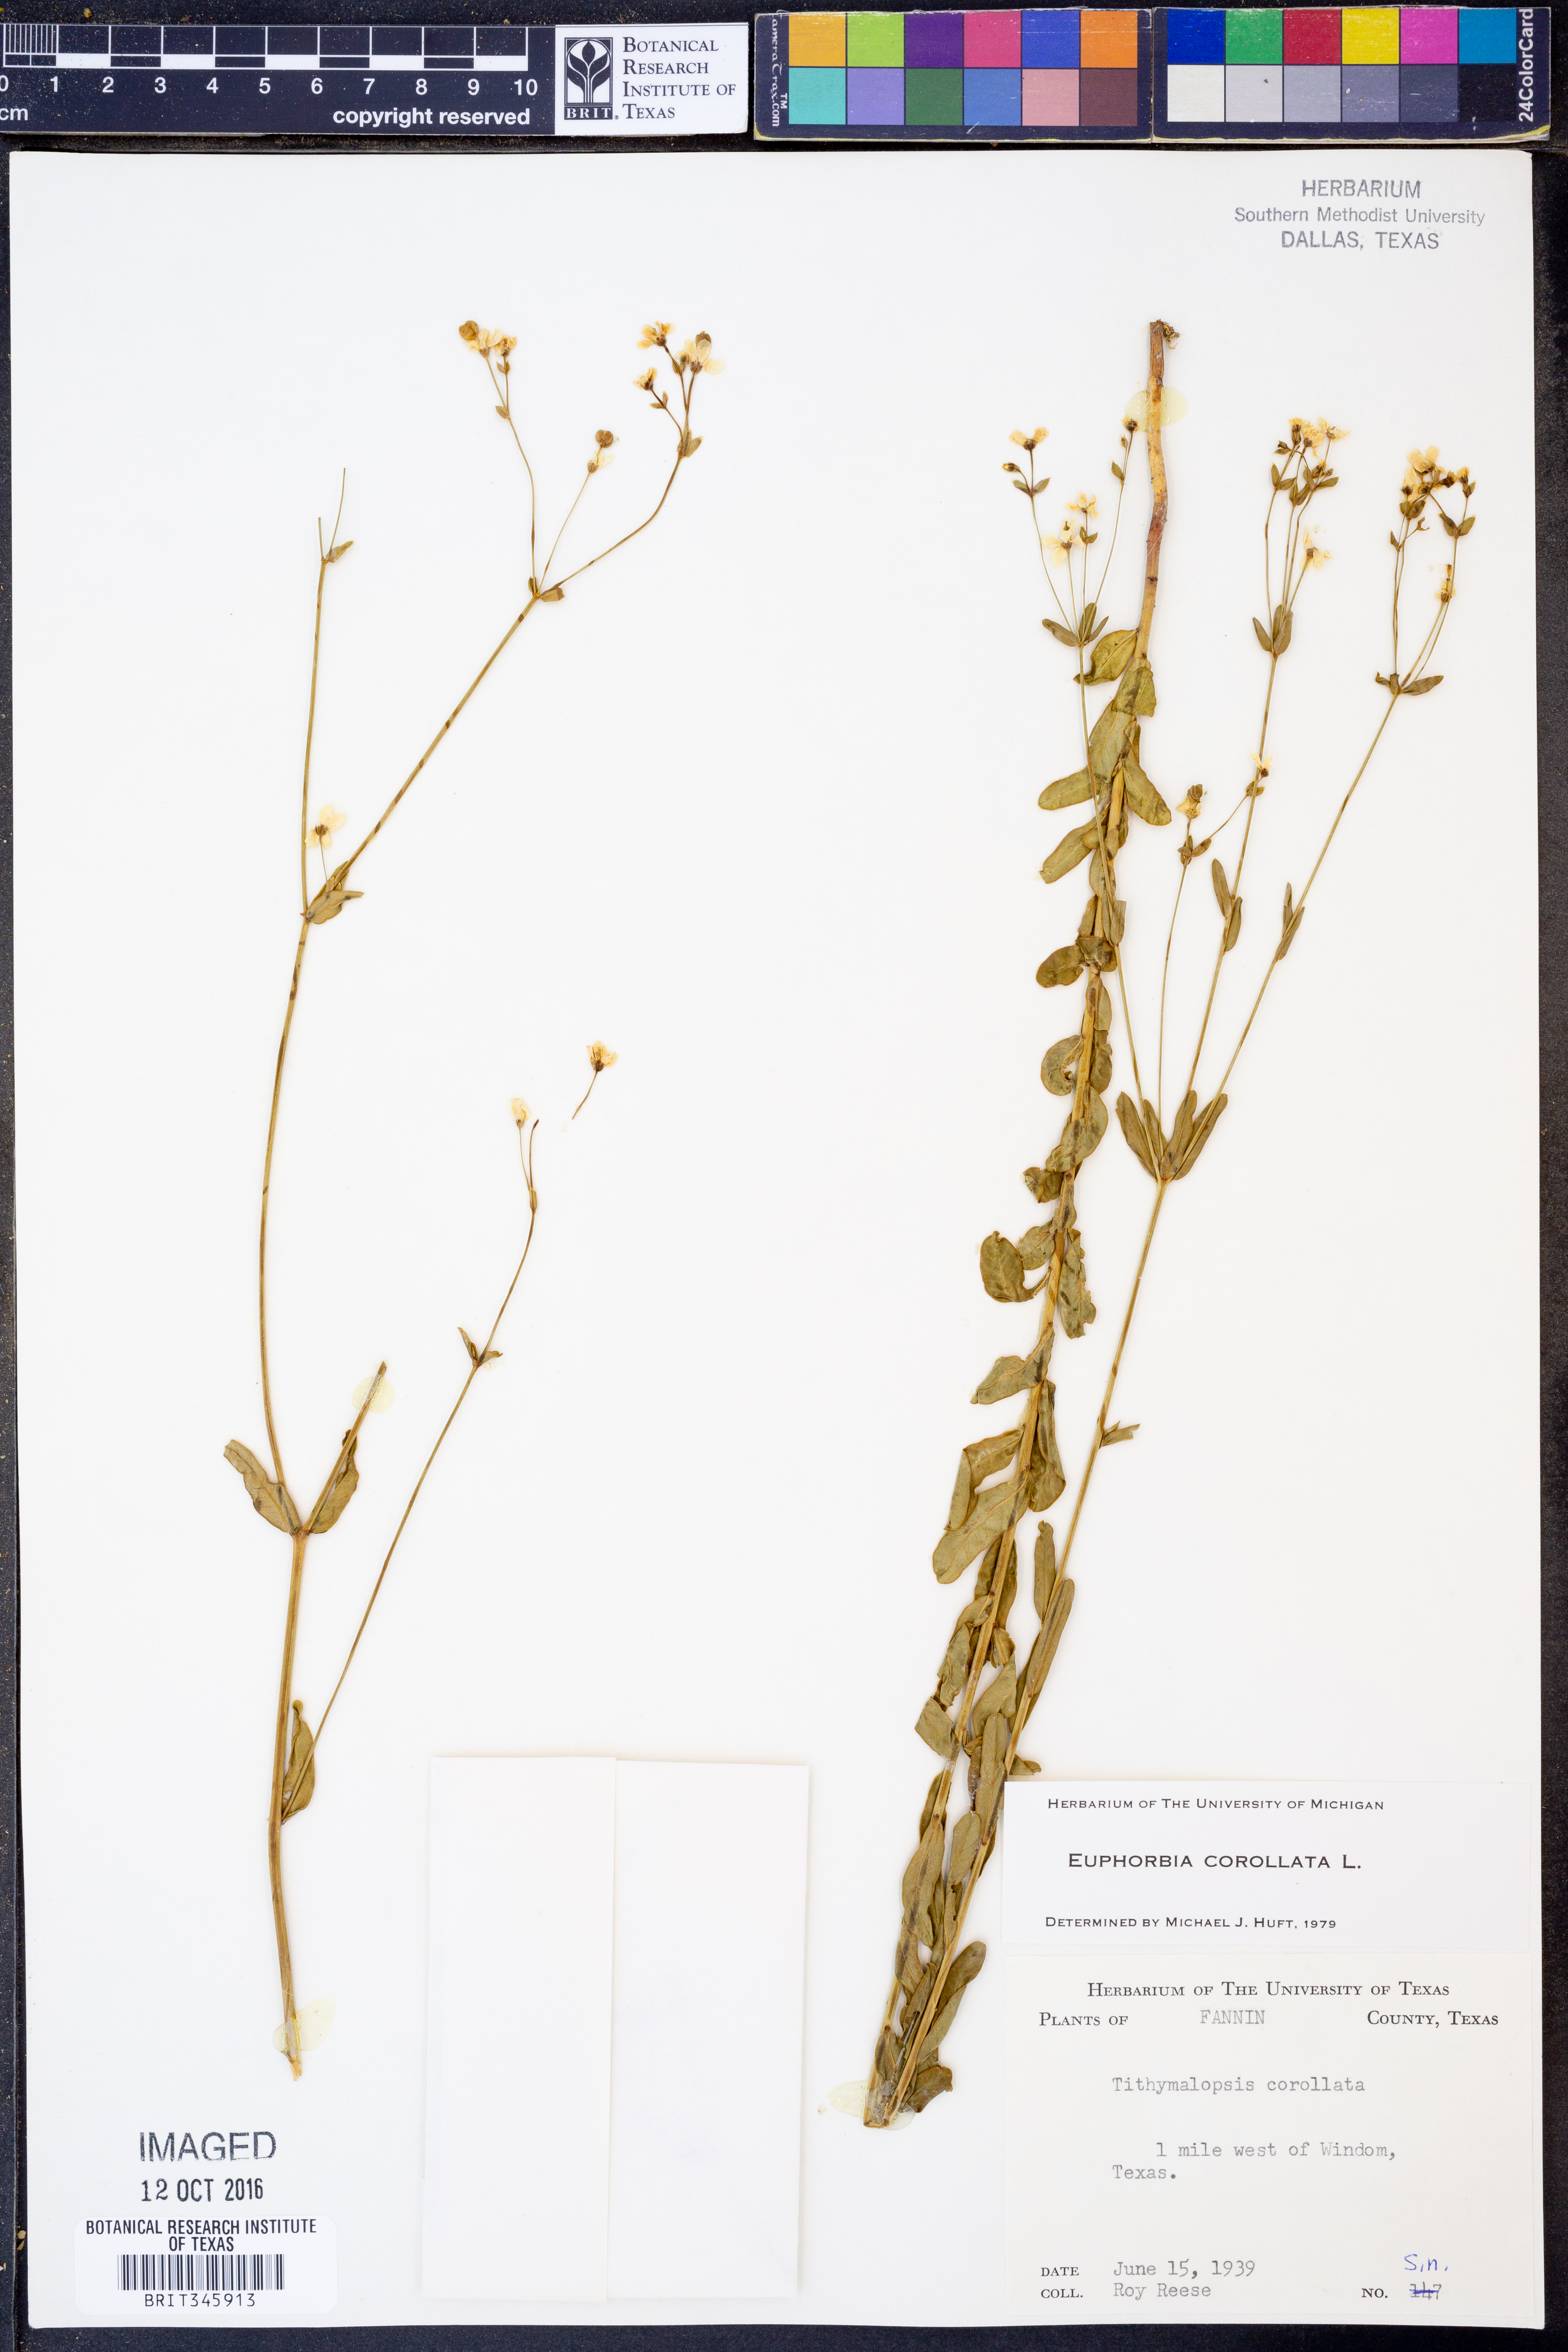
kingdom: Plantae
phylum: Tracheophyta
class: Magnoliopsida
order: Malpighiales
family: Euphorbiaceae
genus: Euphorbia
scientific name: Euphorbia corollata
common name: Flowering spurge
